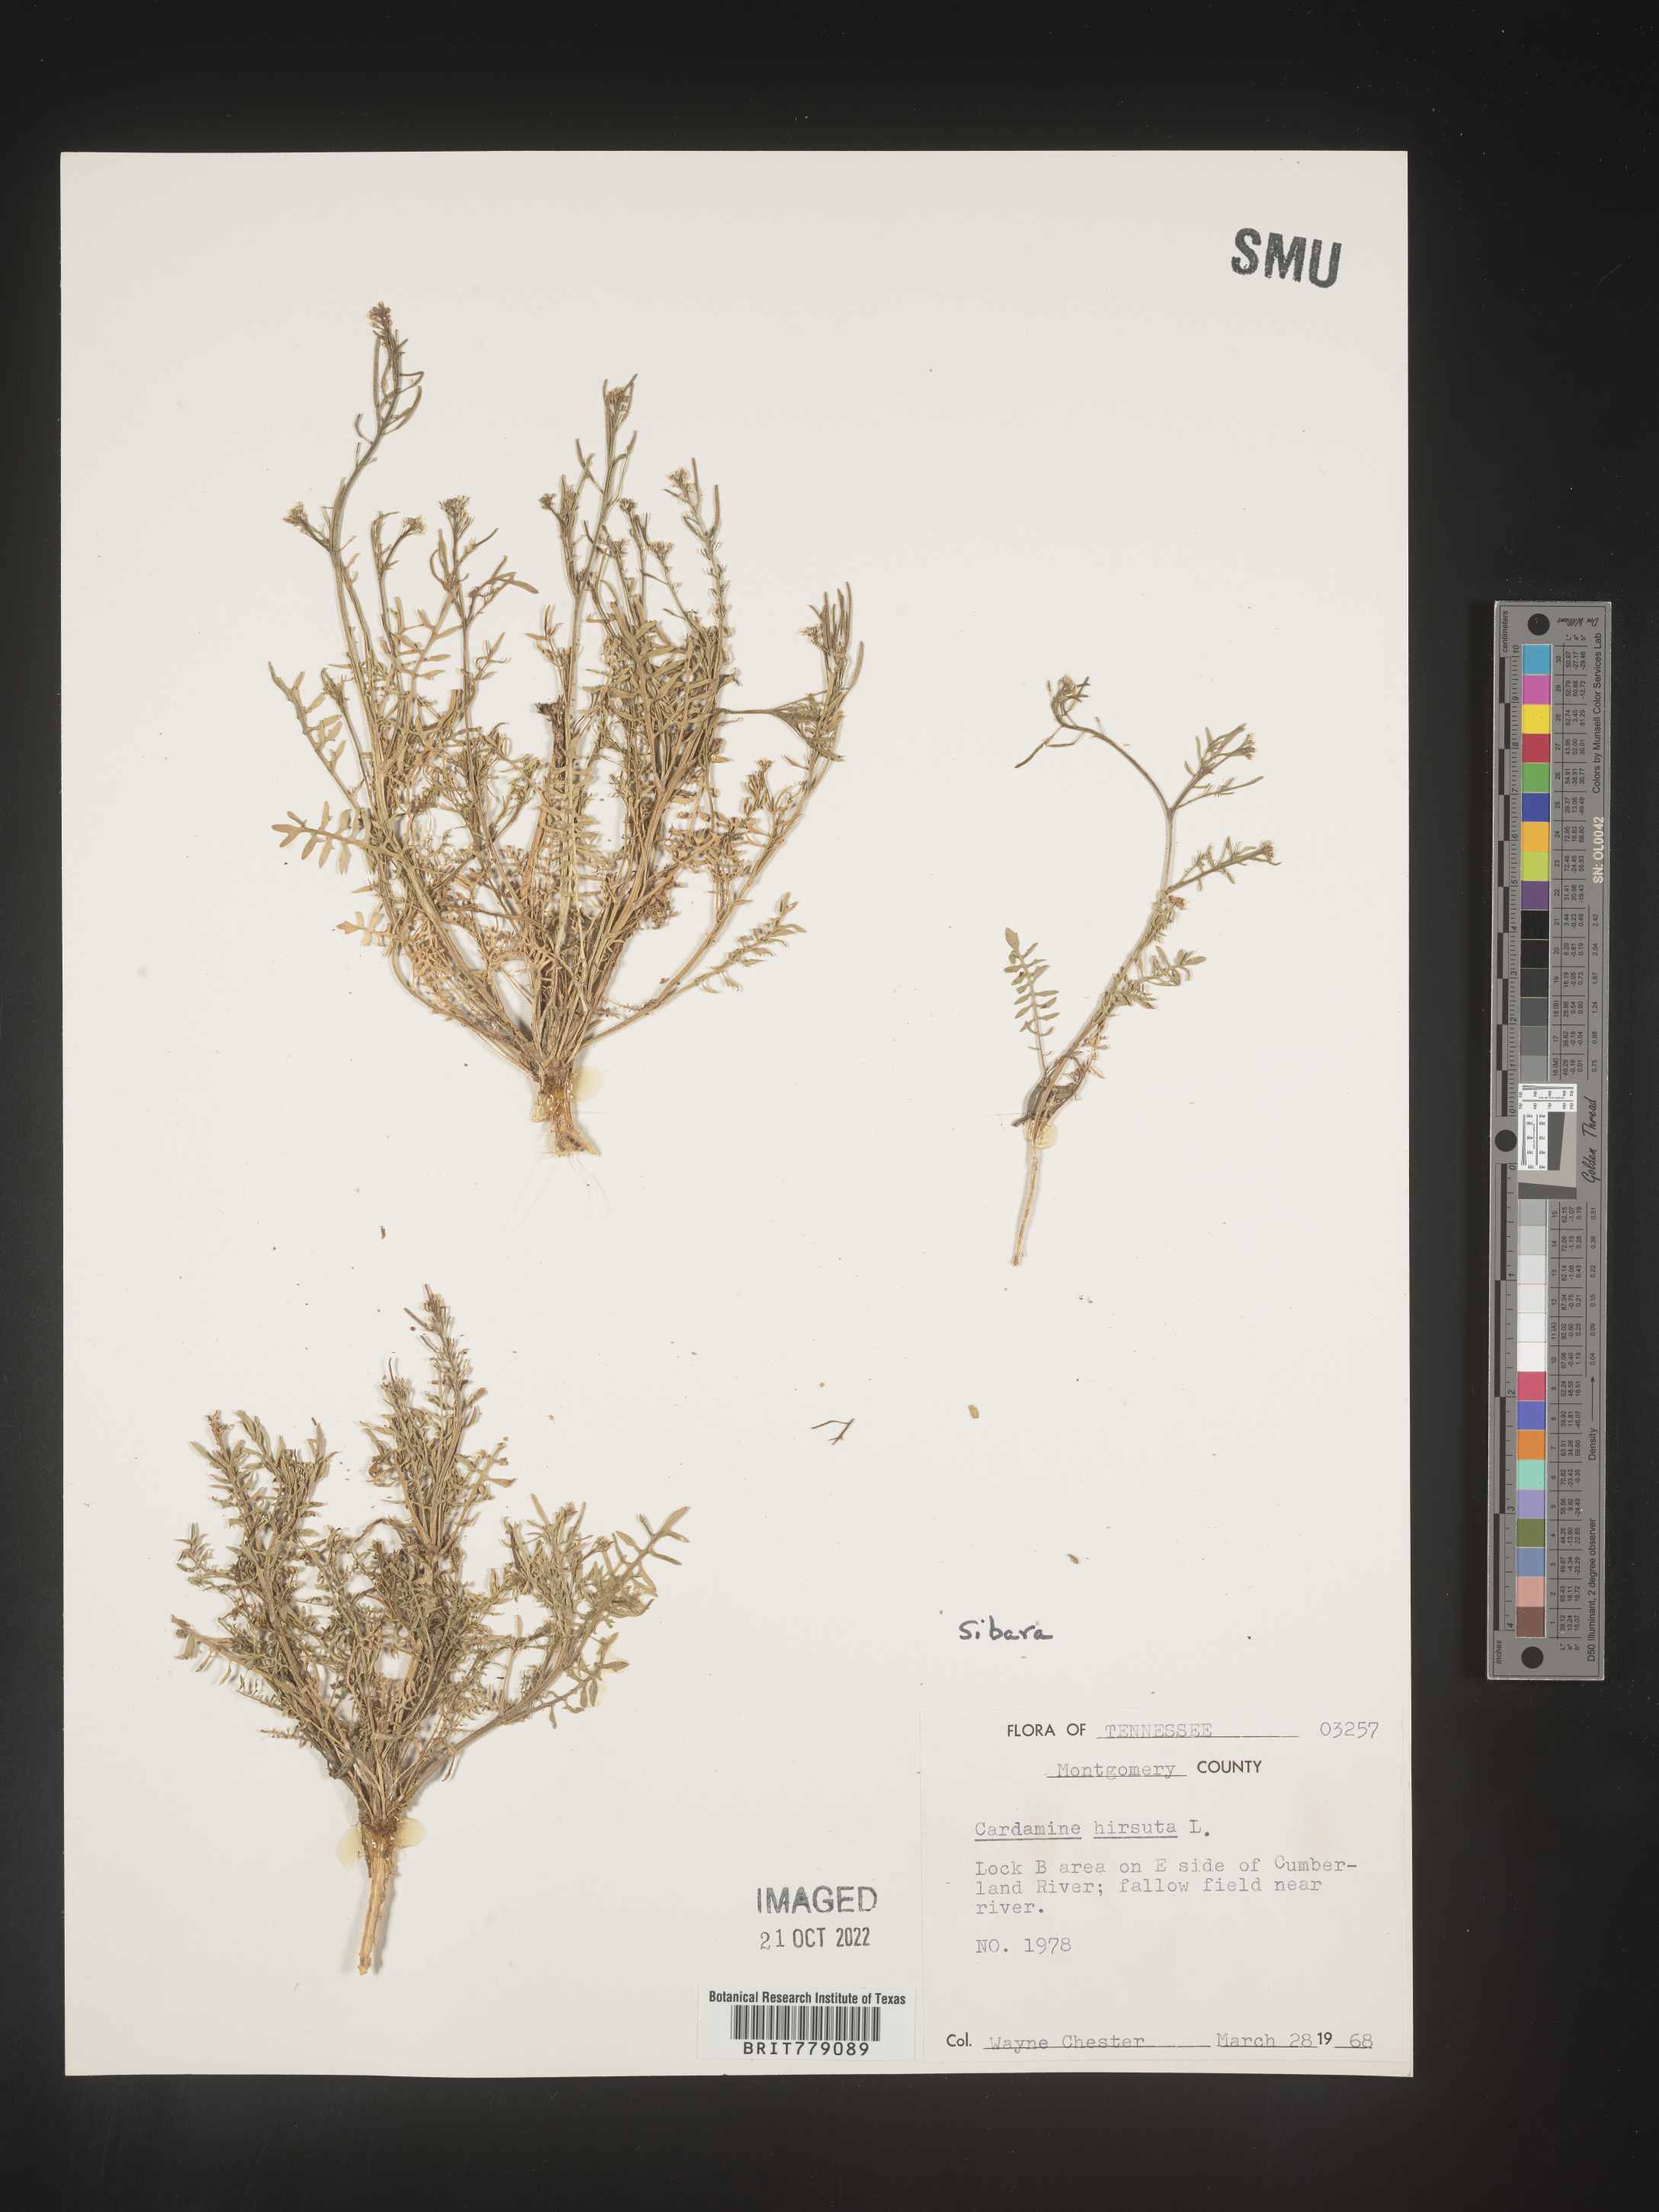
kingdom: Plantae
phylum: Tracheophyta
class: Magnoliopsida
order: Brassicales
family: Brassicaceae
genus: Sibara
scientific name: Sibara
